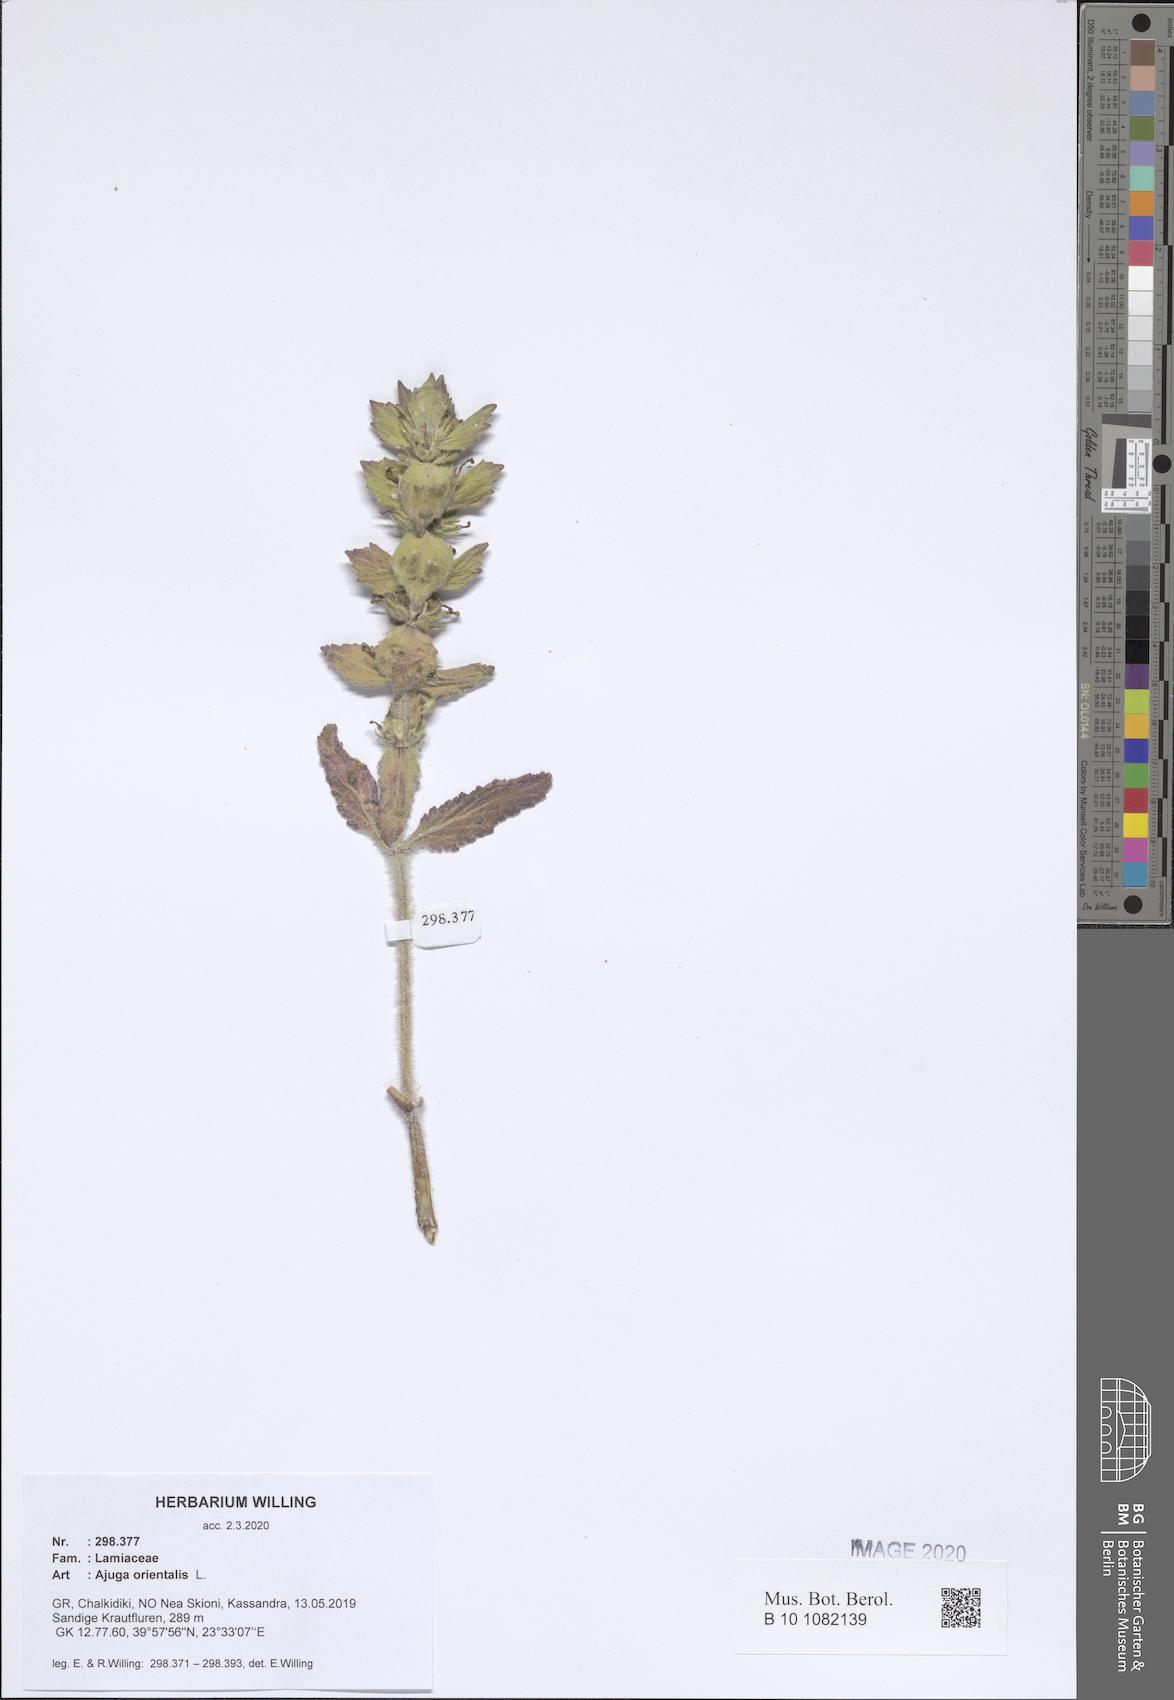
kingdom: Plantae
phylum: Tracheophyta
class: Magnoliopsida
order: Lamiales
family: Lamiaceae
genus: Ajuga
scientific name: Ajuga orientalis
